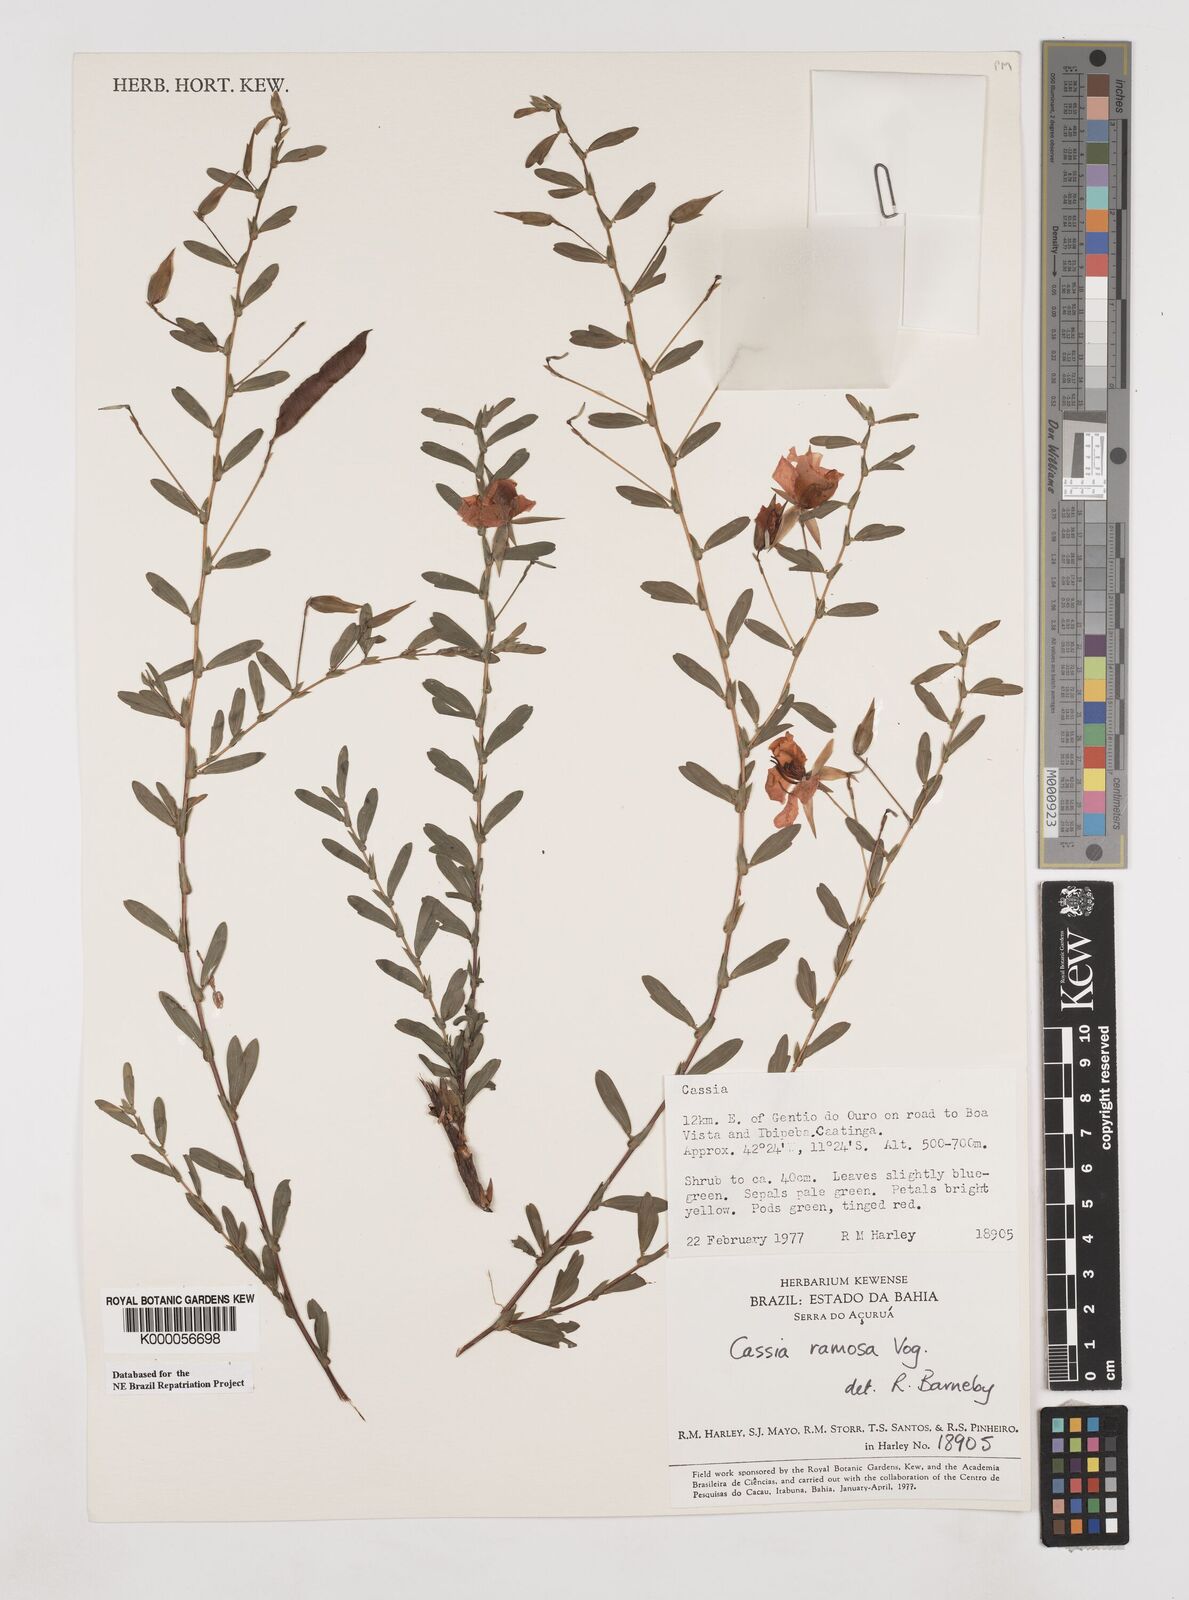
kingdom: Plantae
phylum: Tracheophyta
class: Magnoliopsida
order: Fabales
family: Fabaceae
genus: Chamaecrista
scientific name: Chamaecrista ramosa
